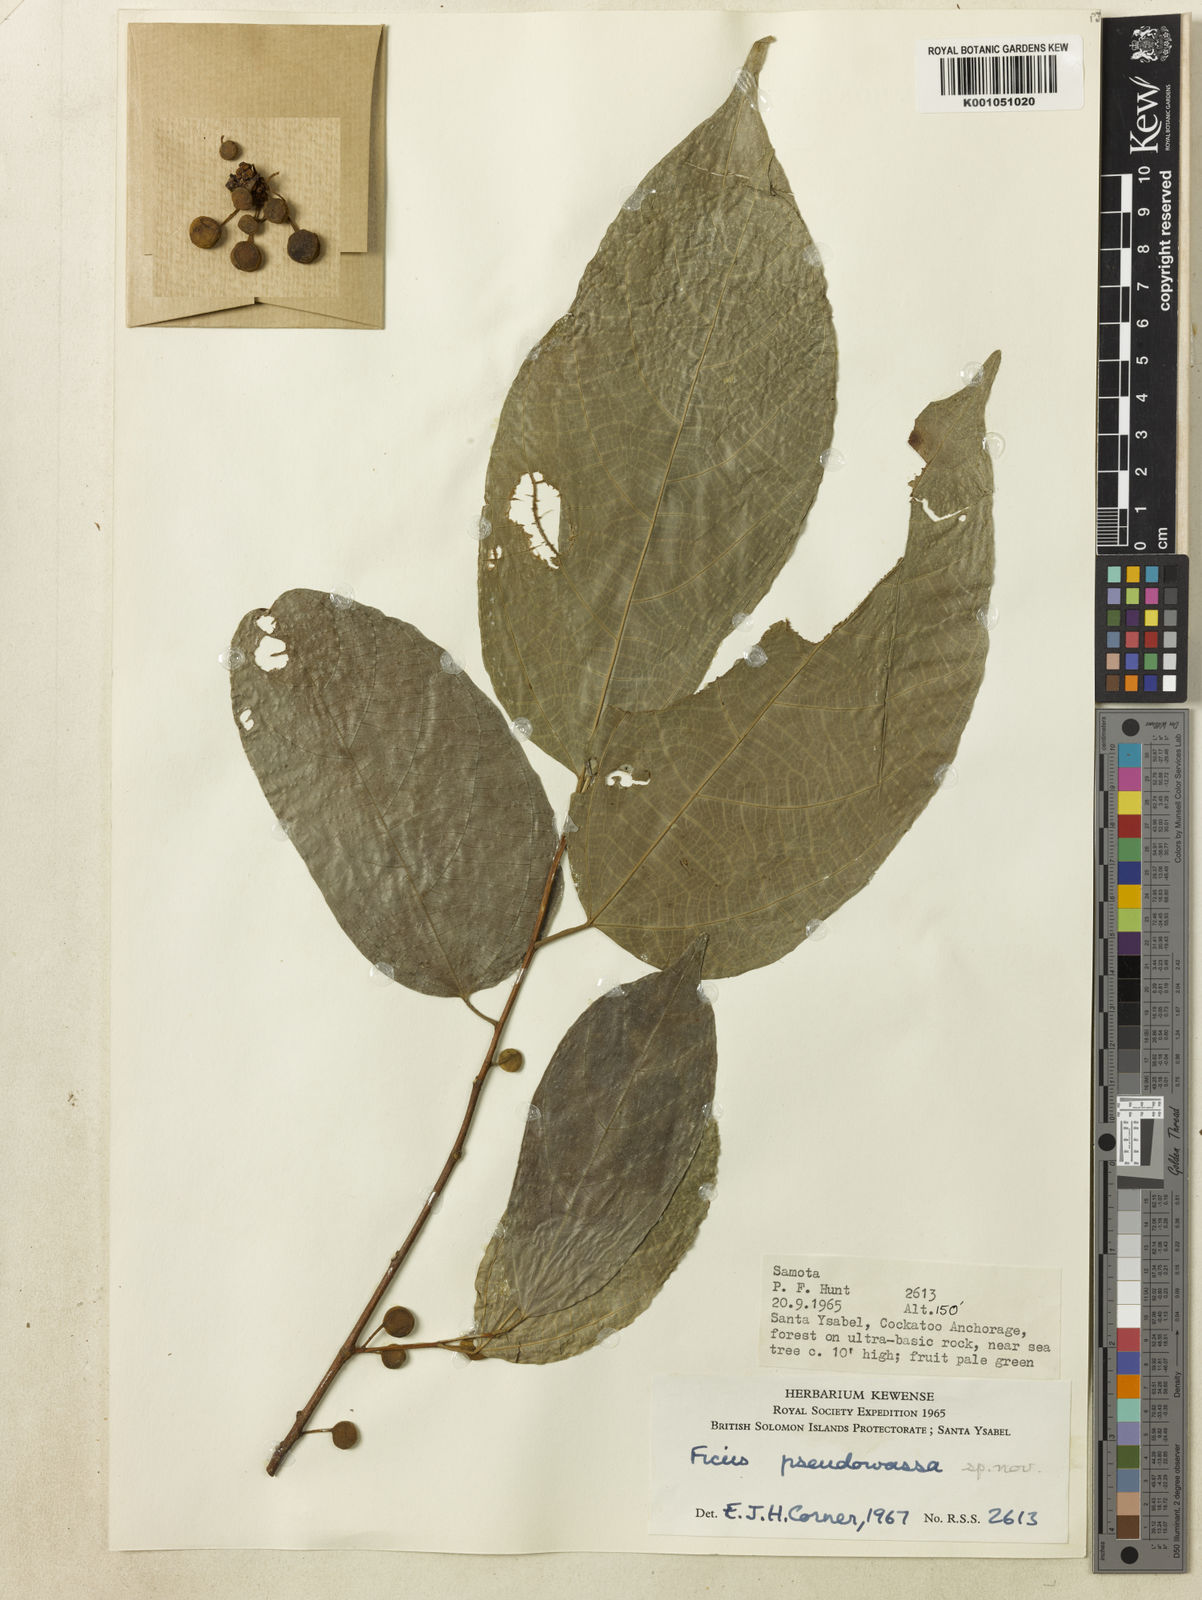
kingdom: Plantae
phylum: Tracheophyta
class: Magnoliopsida
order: Rosales
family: Moraceae
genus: Ficus
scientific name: Ficus pseudowassa
